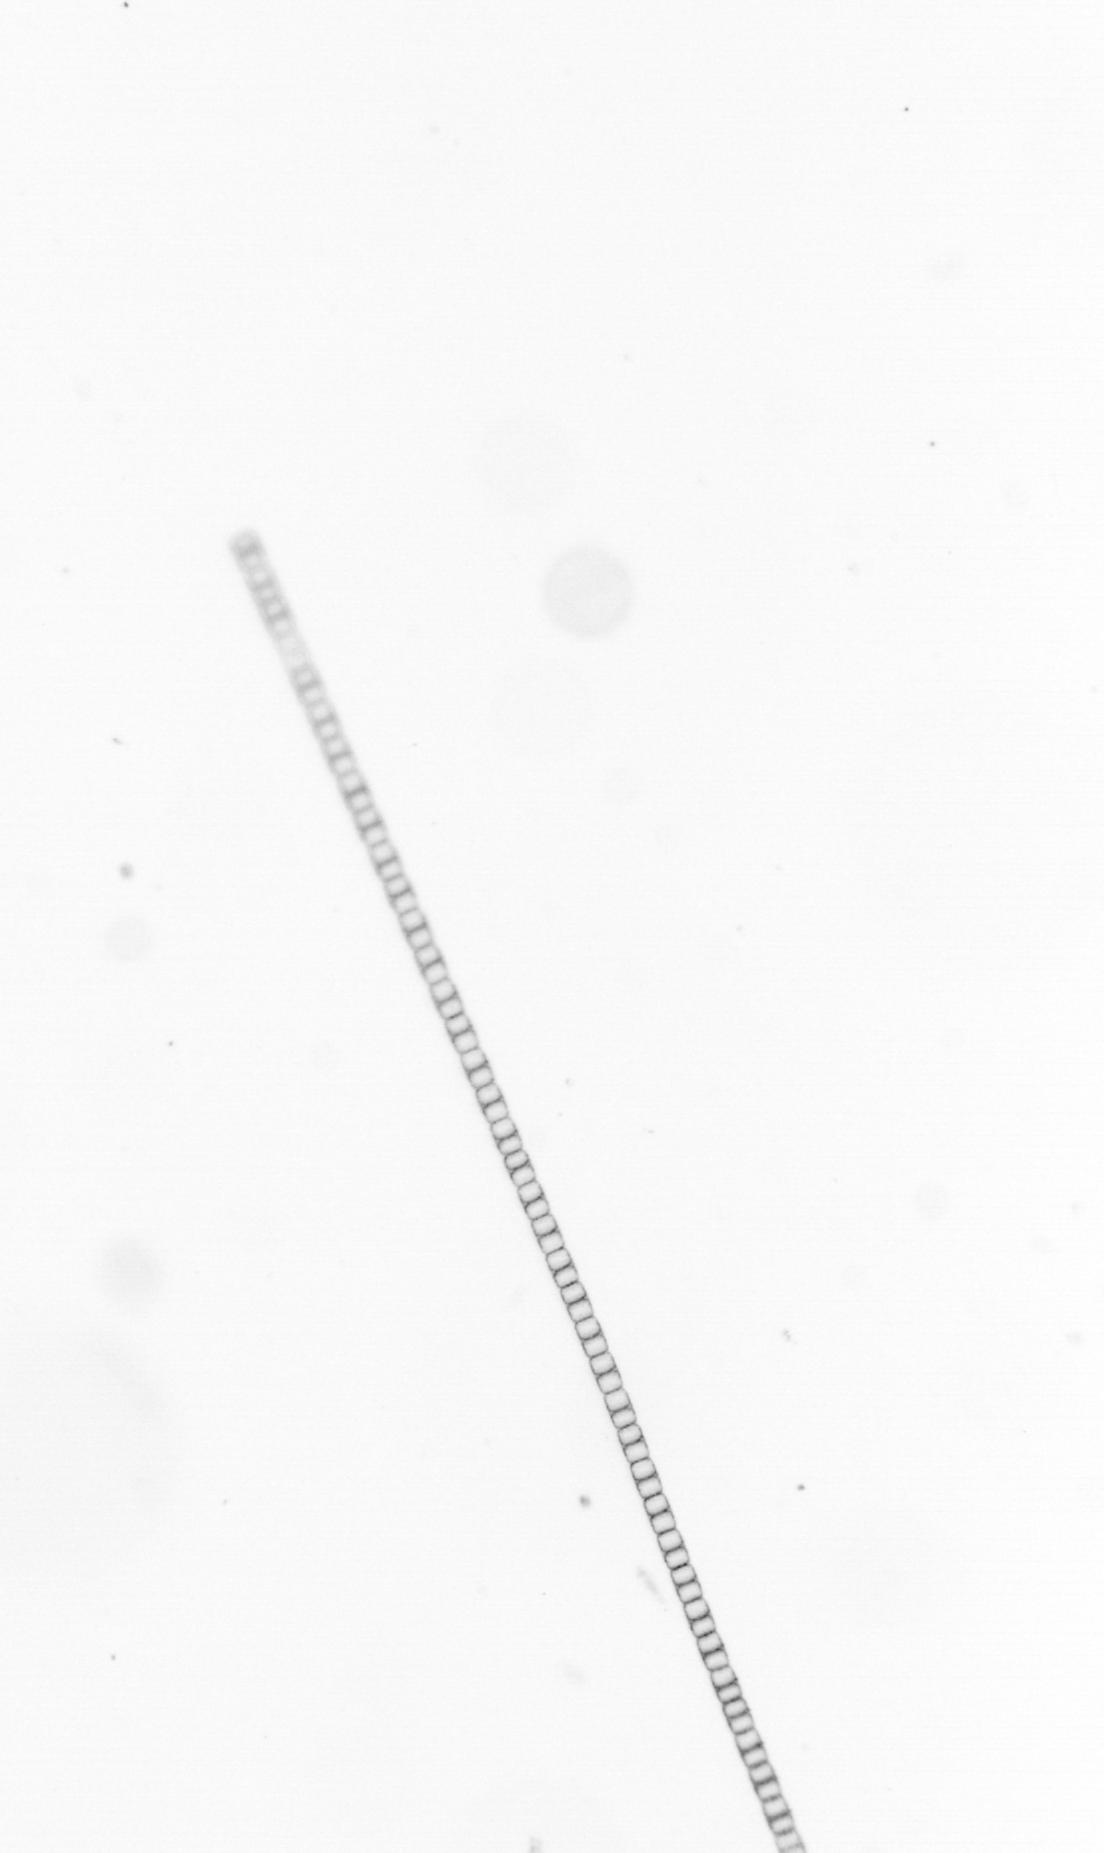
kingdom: Chromista
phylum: Ochrophyta
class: Bacillariophyceae
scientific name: Bacillariophyceae
